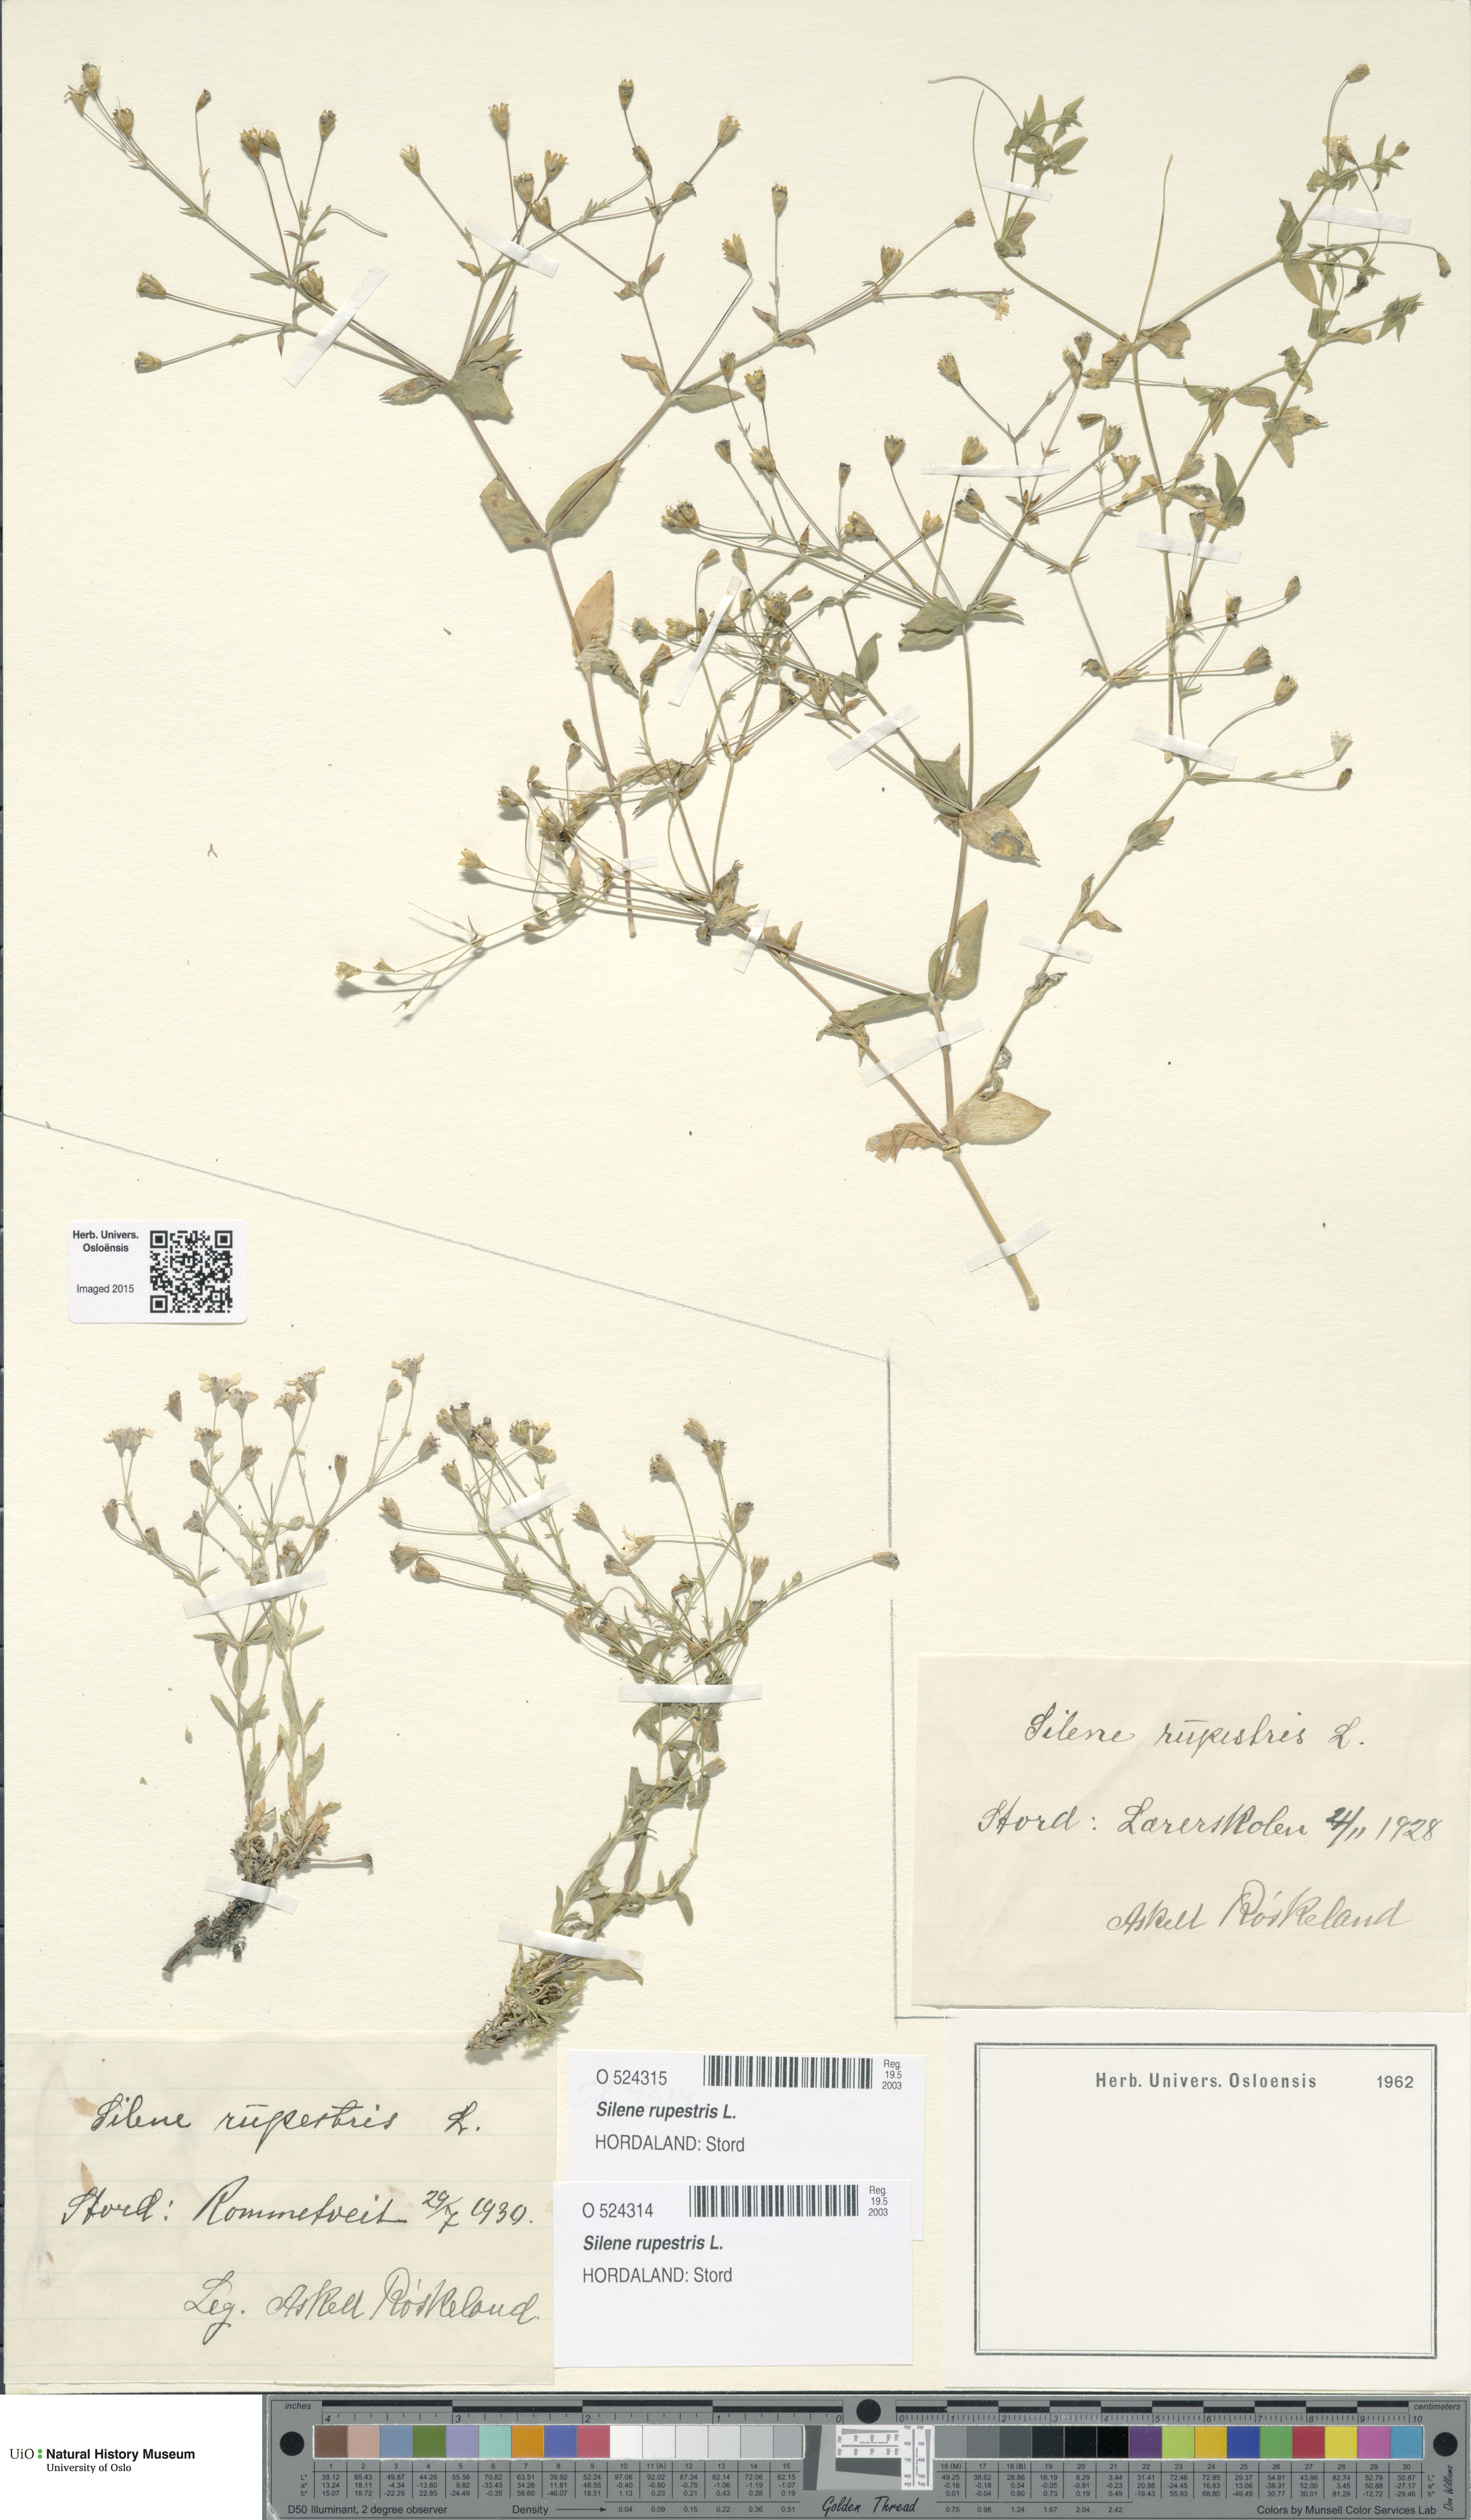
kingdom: Plantae
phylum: Tracheophyta
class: Magnoliopsida
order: Caryophyllales
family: Caryophyllaceae
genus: Atocion
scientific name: Atocion rupestre
